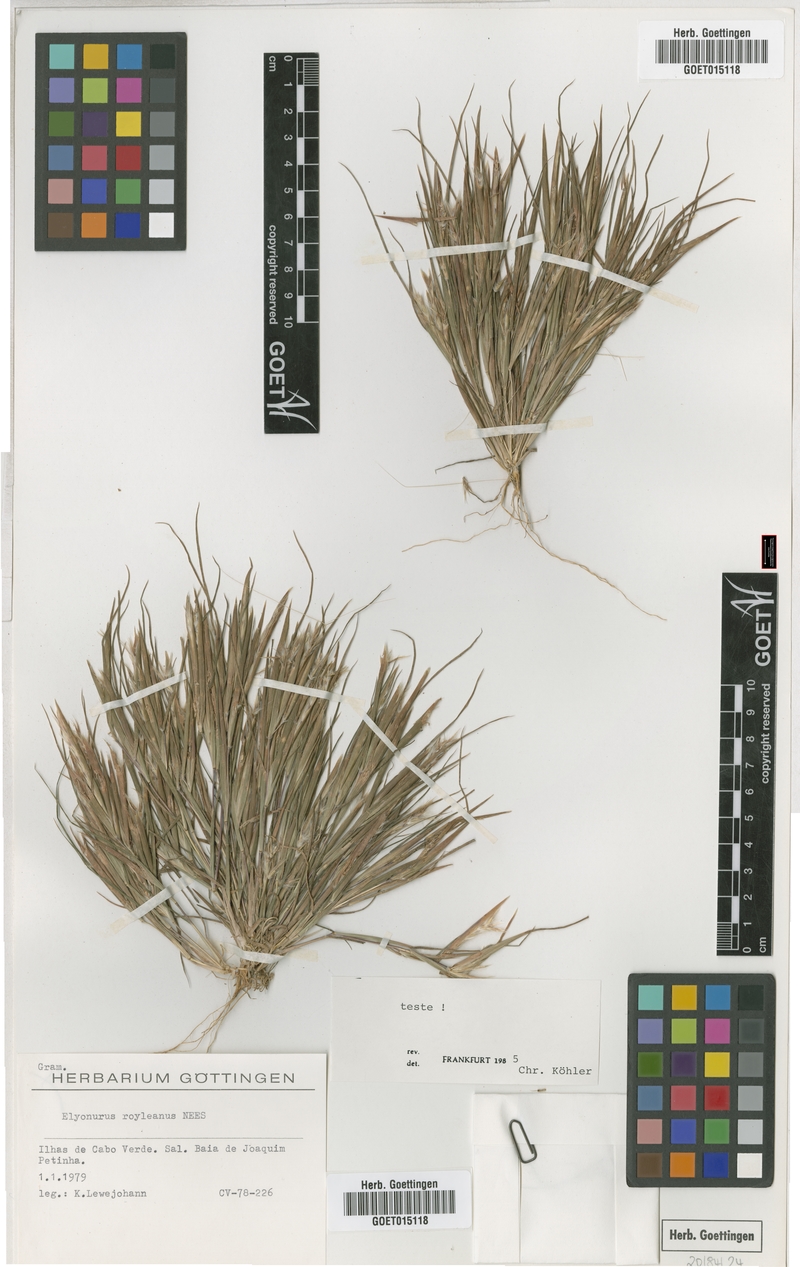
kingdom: Plantae
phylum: Tracheophyta
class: Liliopsida
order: Poales
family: Poaceae
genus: Elionurus
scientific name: Elionurus royleanus
